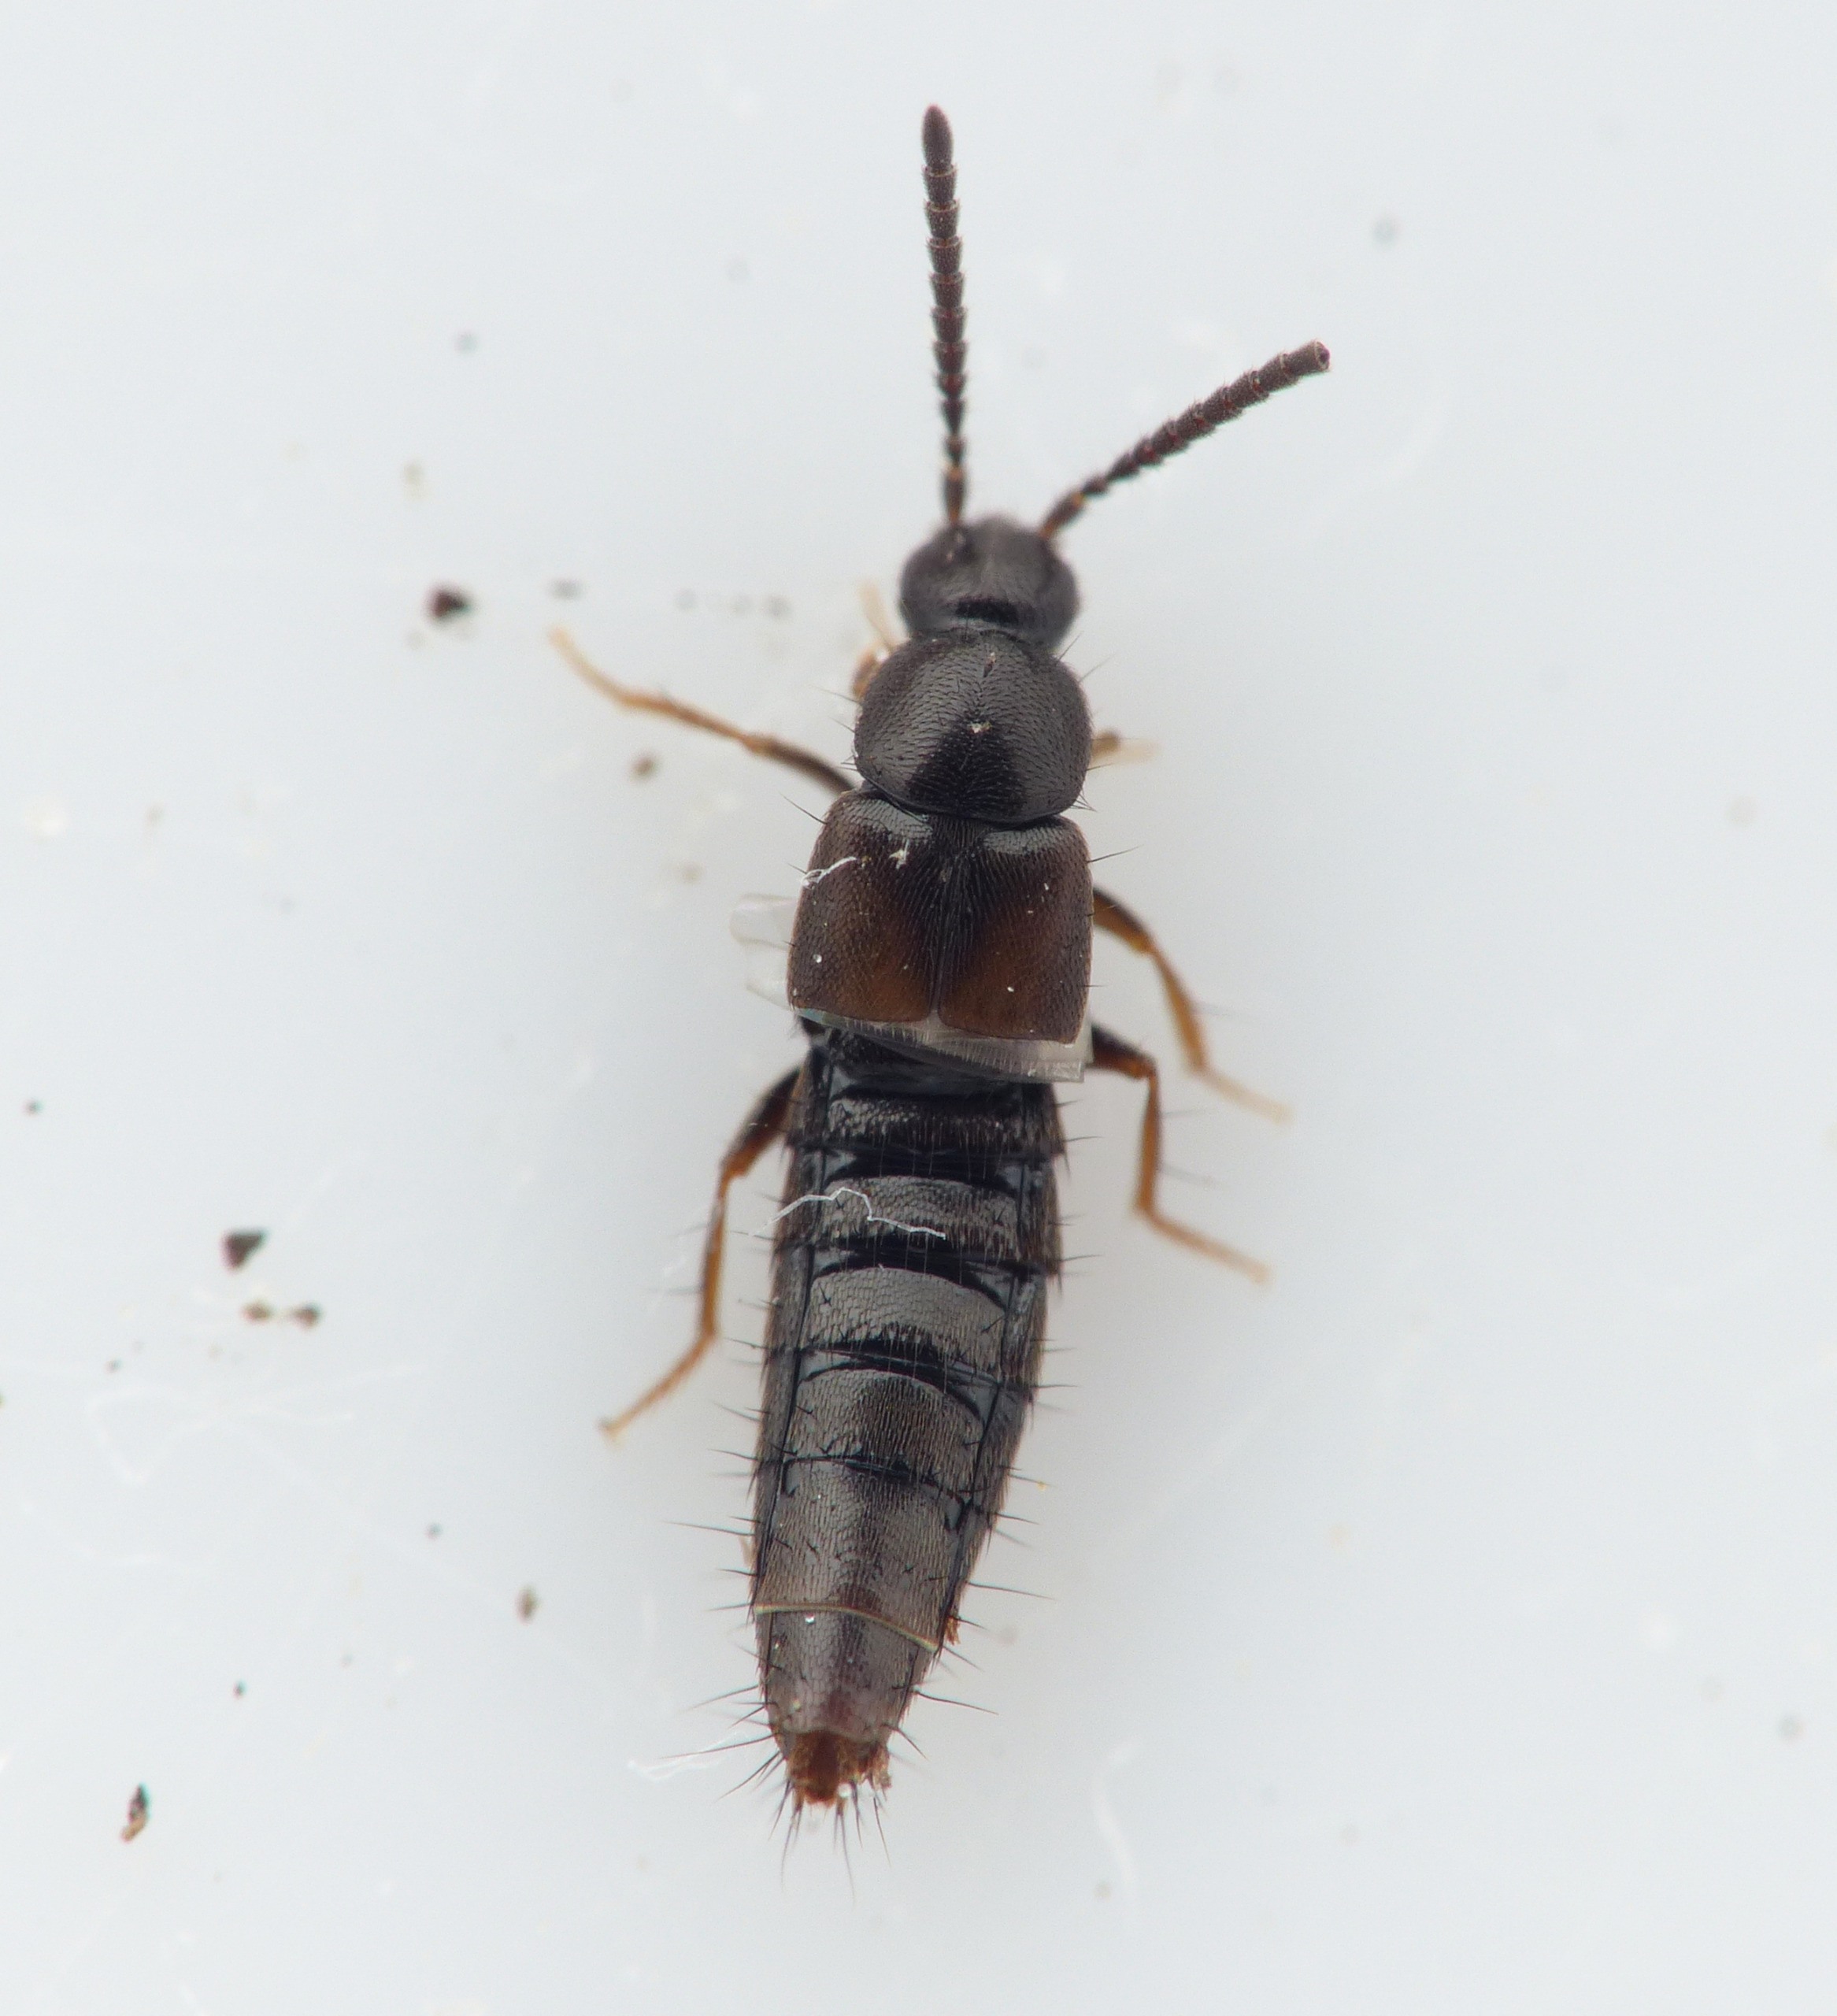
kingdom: Animalia
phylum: Arthropoda
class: Insecta
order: Coleoptera
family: Staphylinidae
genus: Atheta
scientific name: Atheta longicornis
